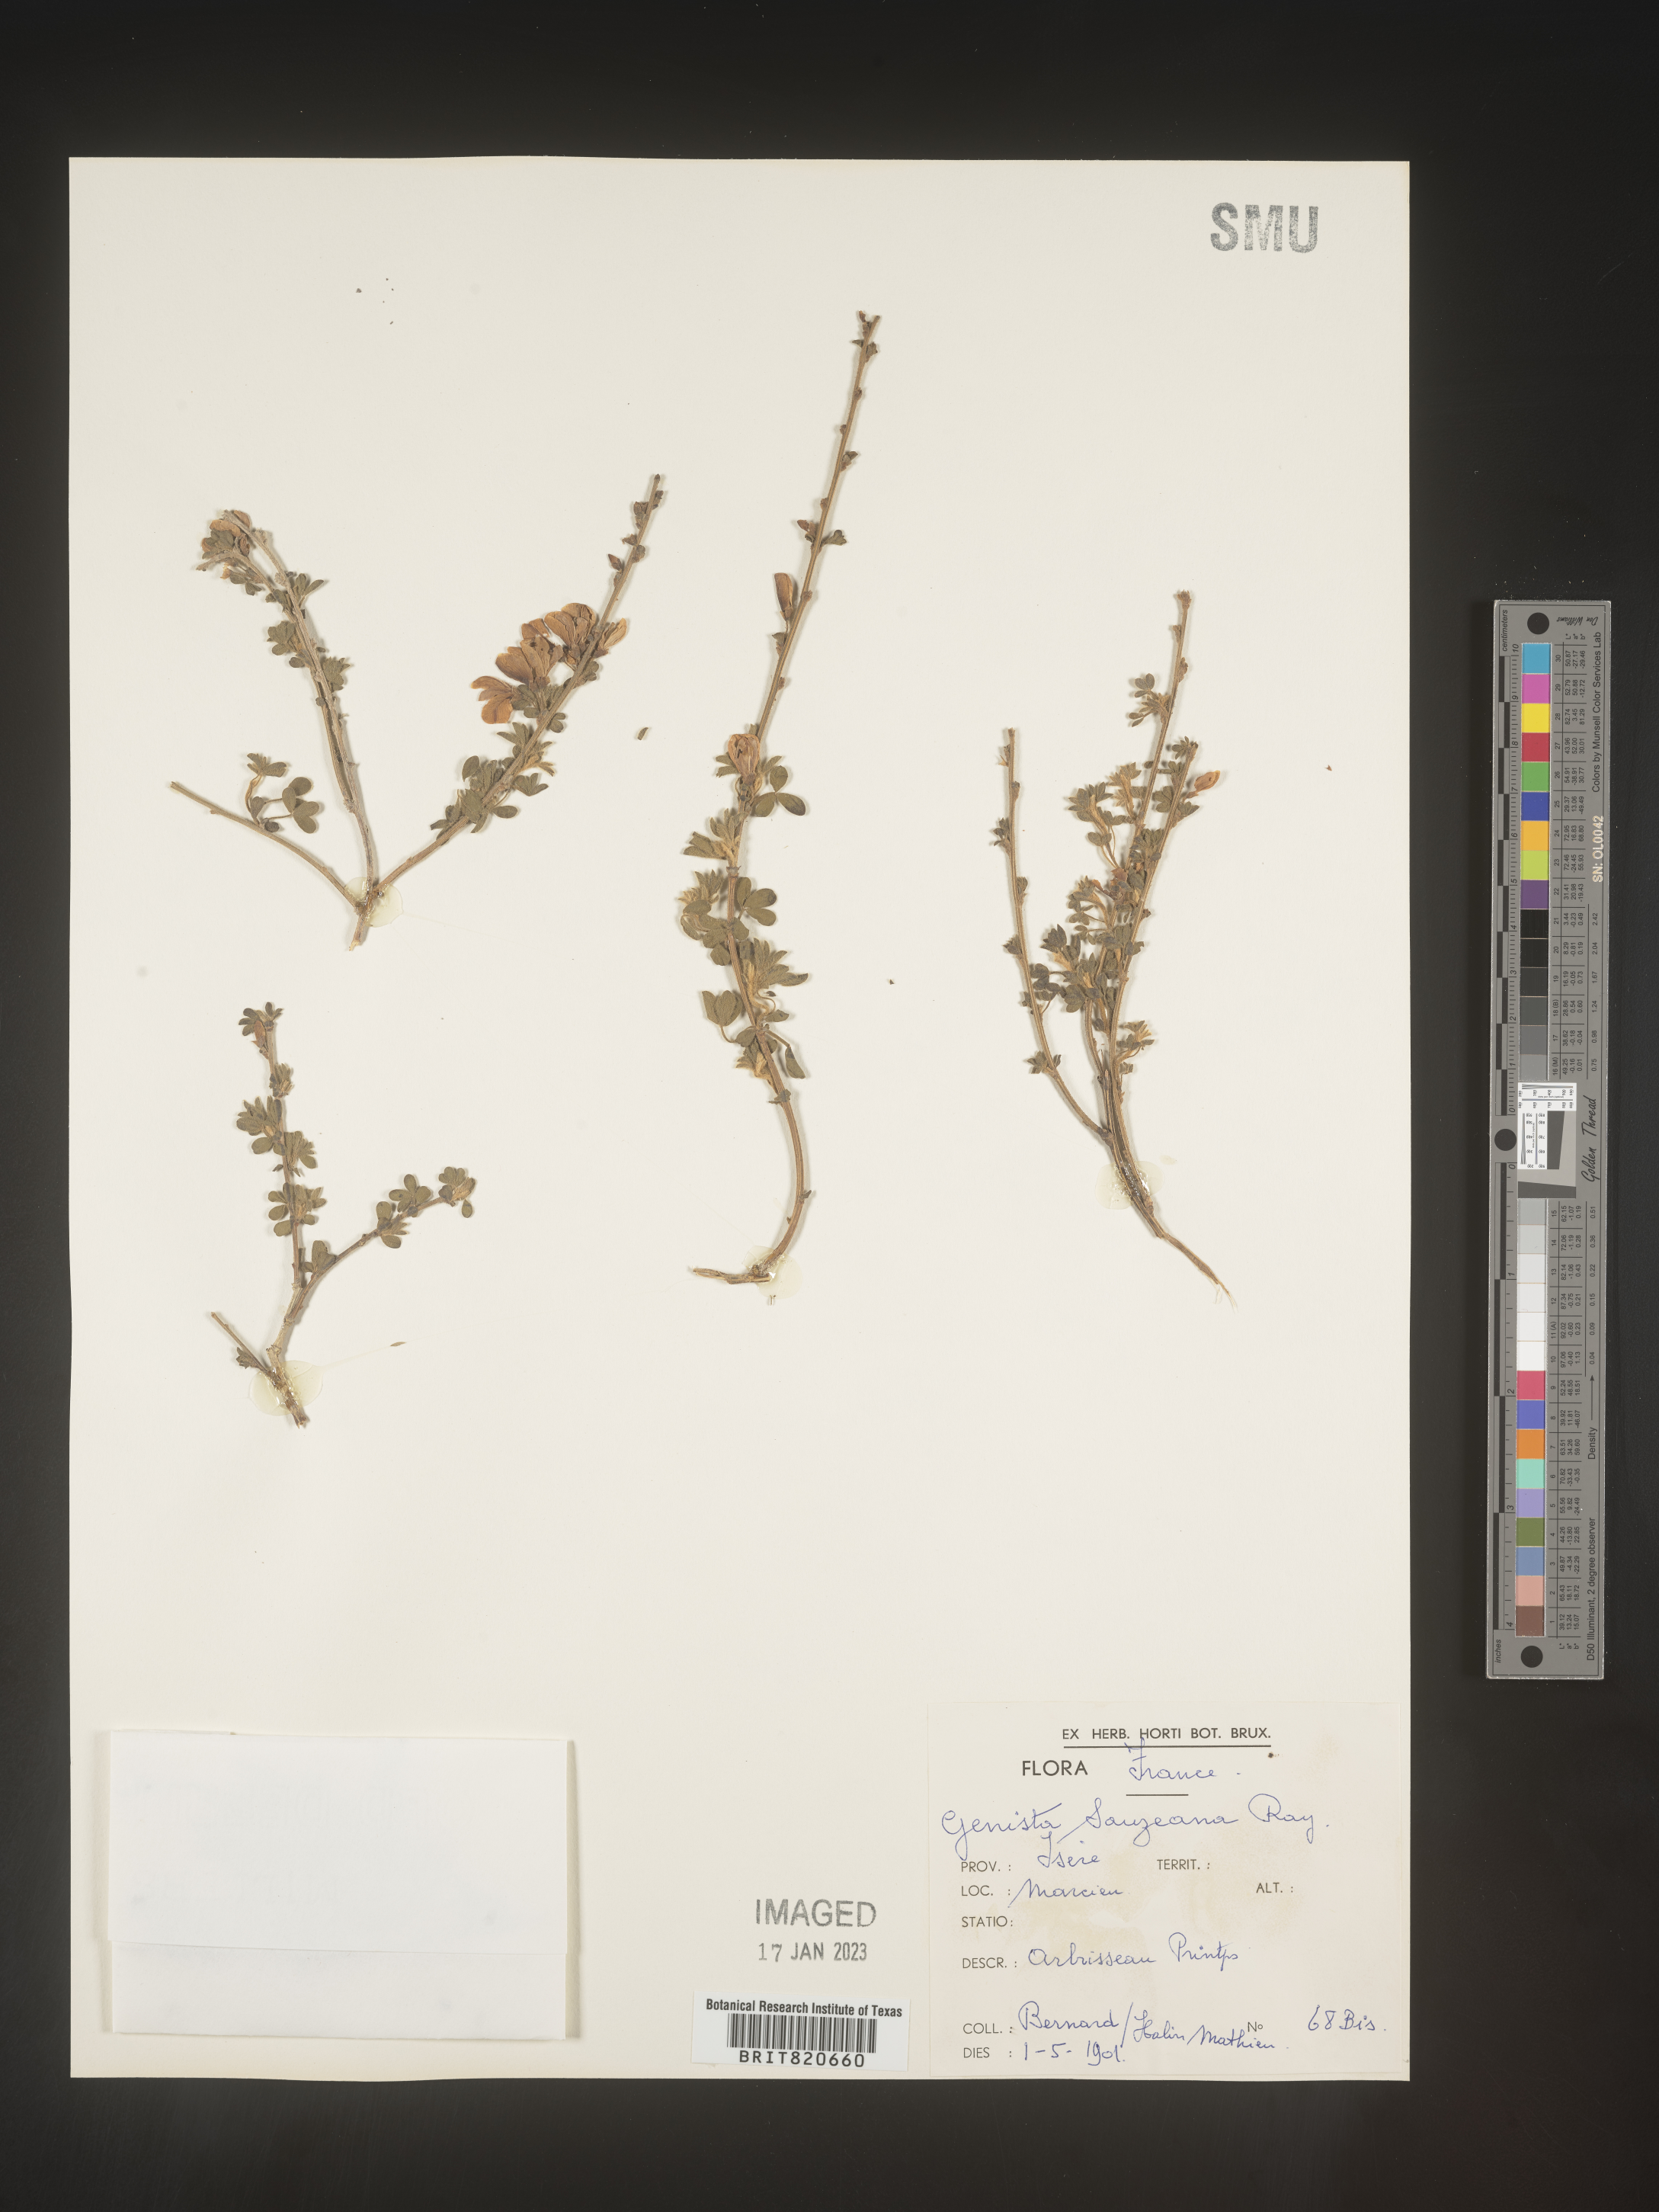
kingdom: Plantae
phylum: Tracheophyta
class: Magnoliopsida
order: Fabales
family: Fabaceae
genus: Genista
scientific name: Genista
